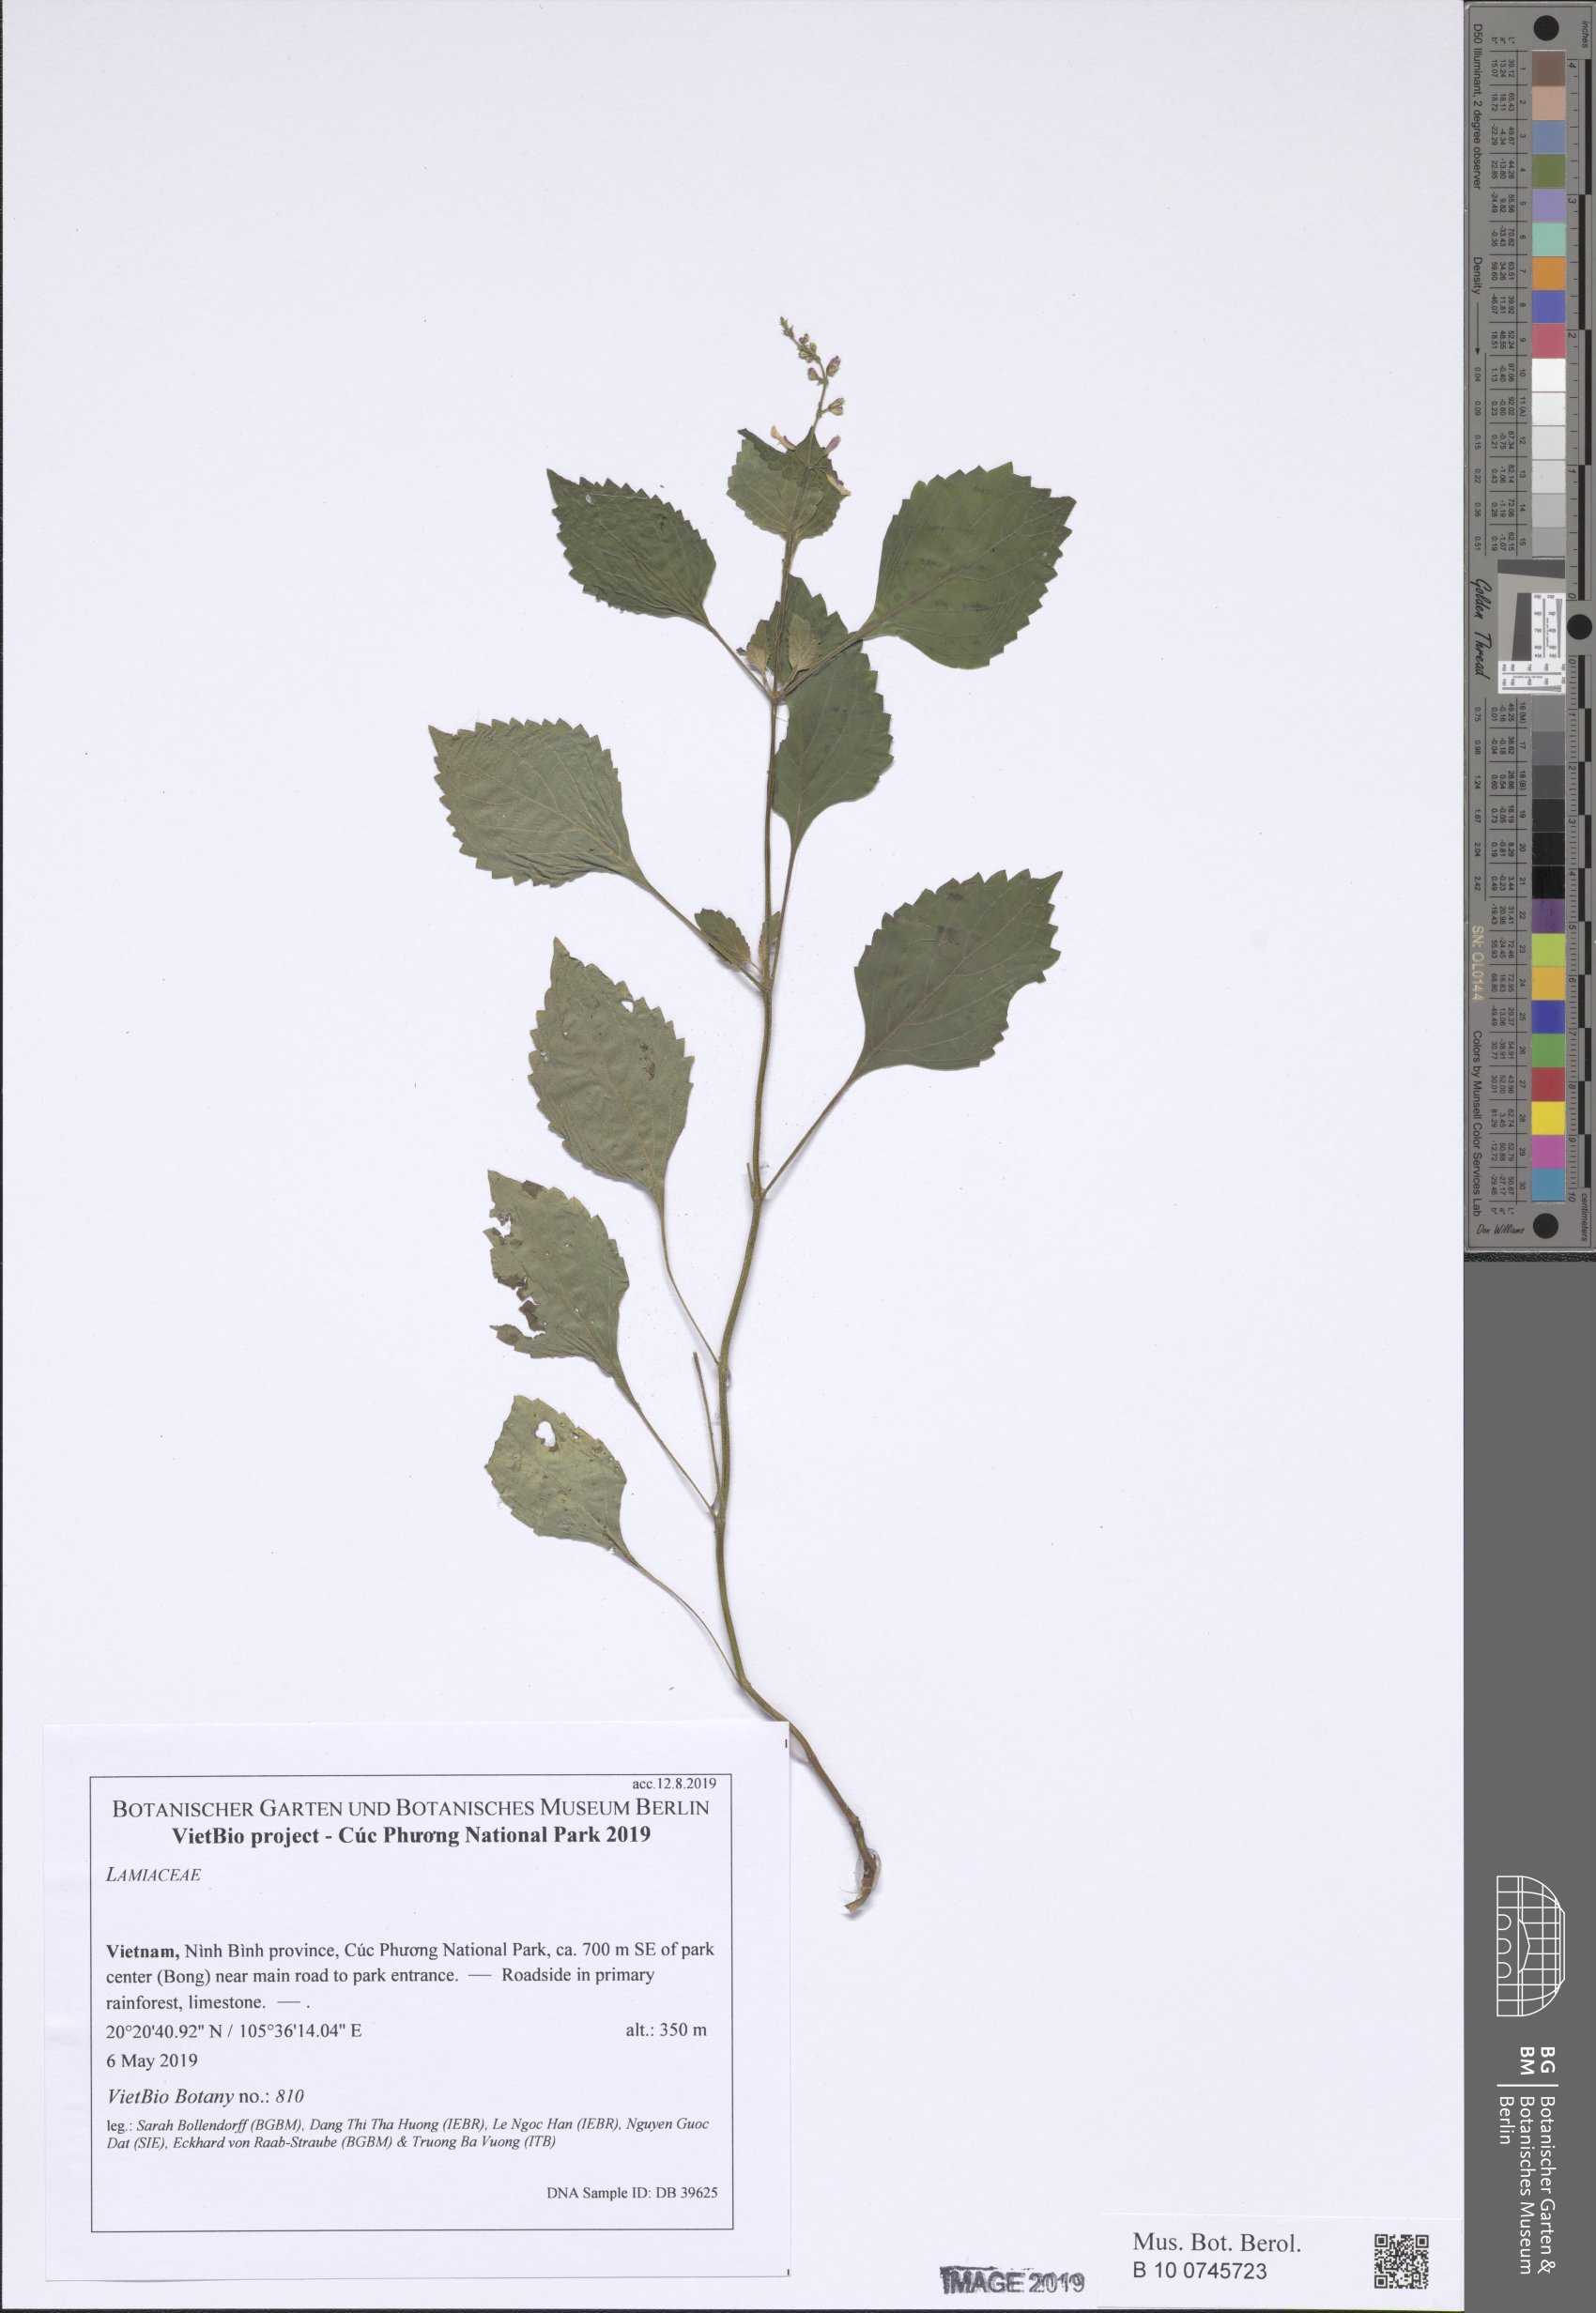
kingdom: Plantae
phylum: Tracheophyta
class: Magnoliopsida
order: Lamiales
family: Lamiaceae
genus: Orthosiphon
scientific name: Orthosiphon thymiflorus
